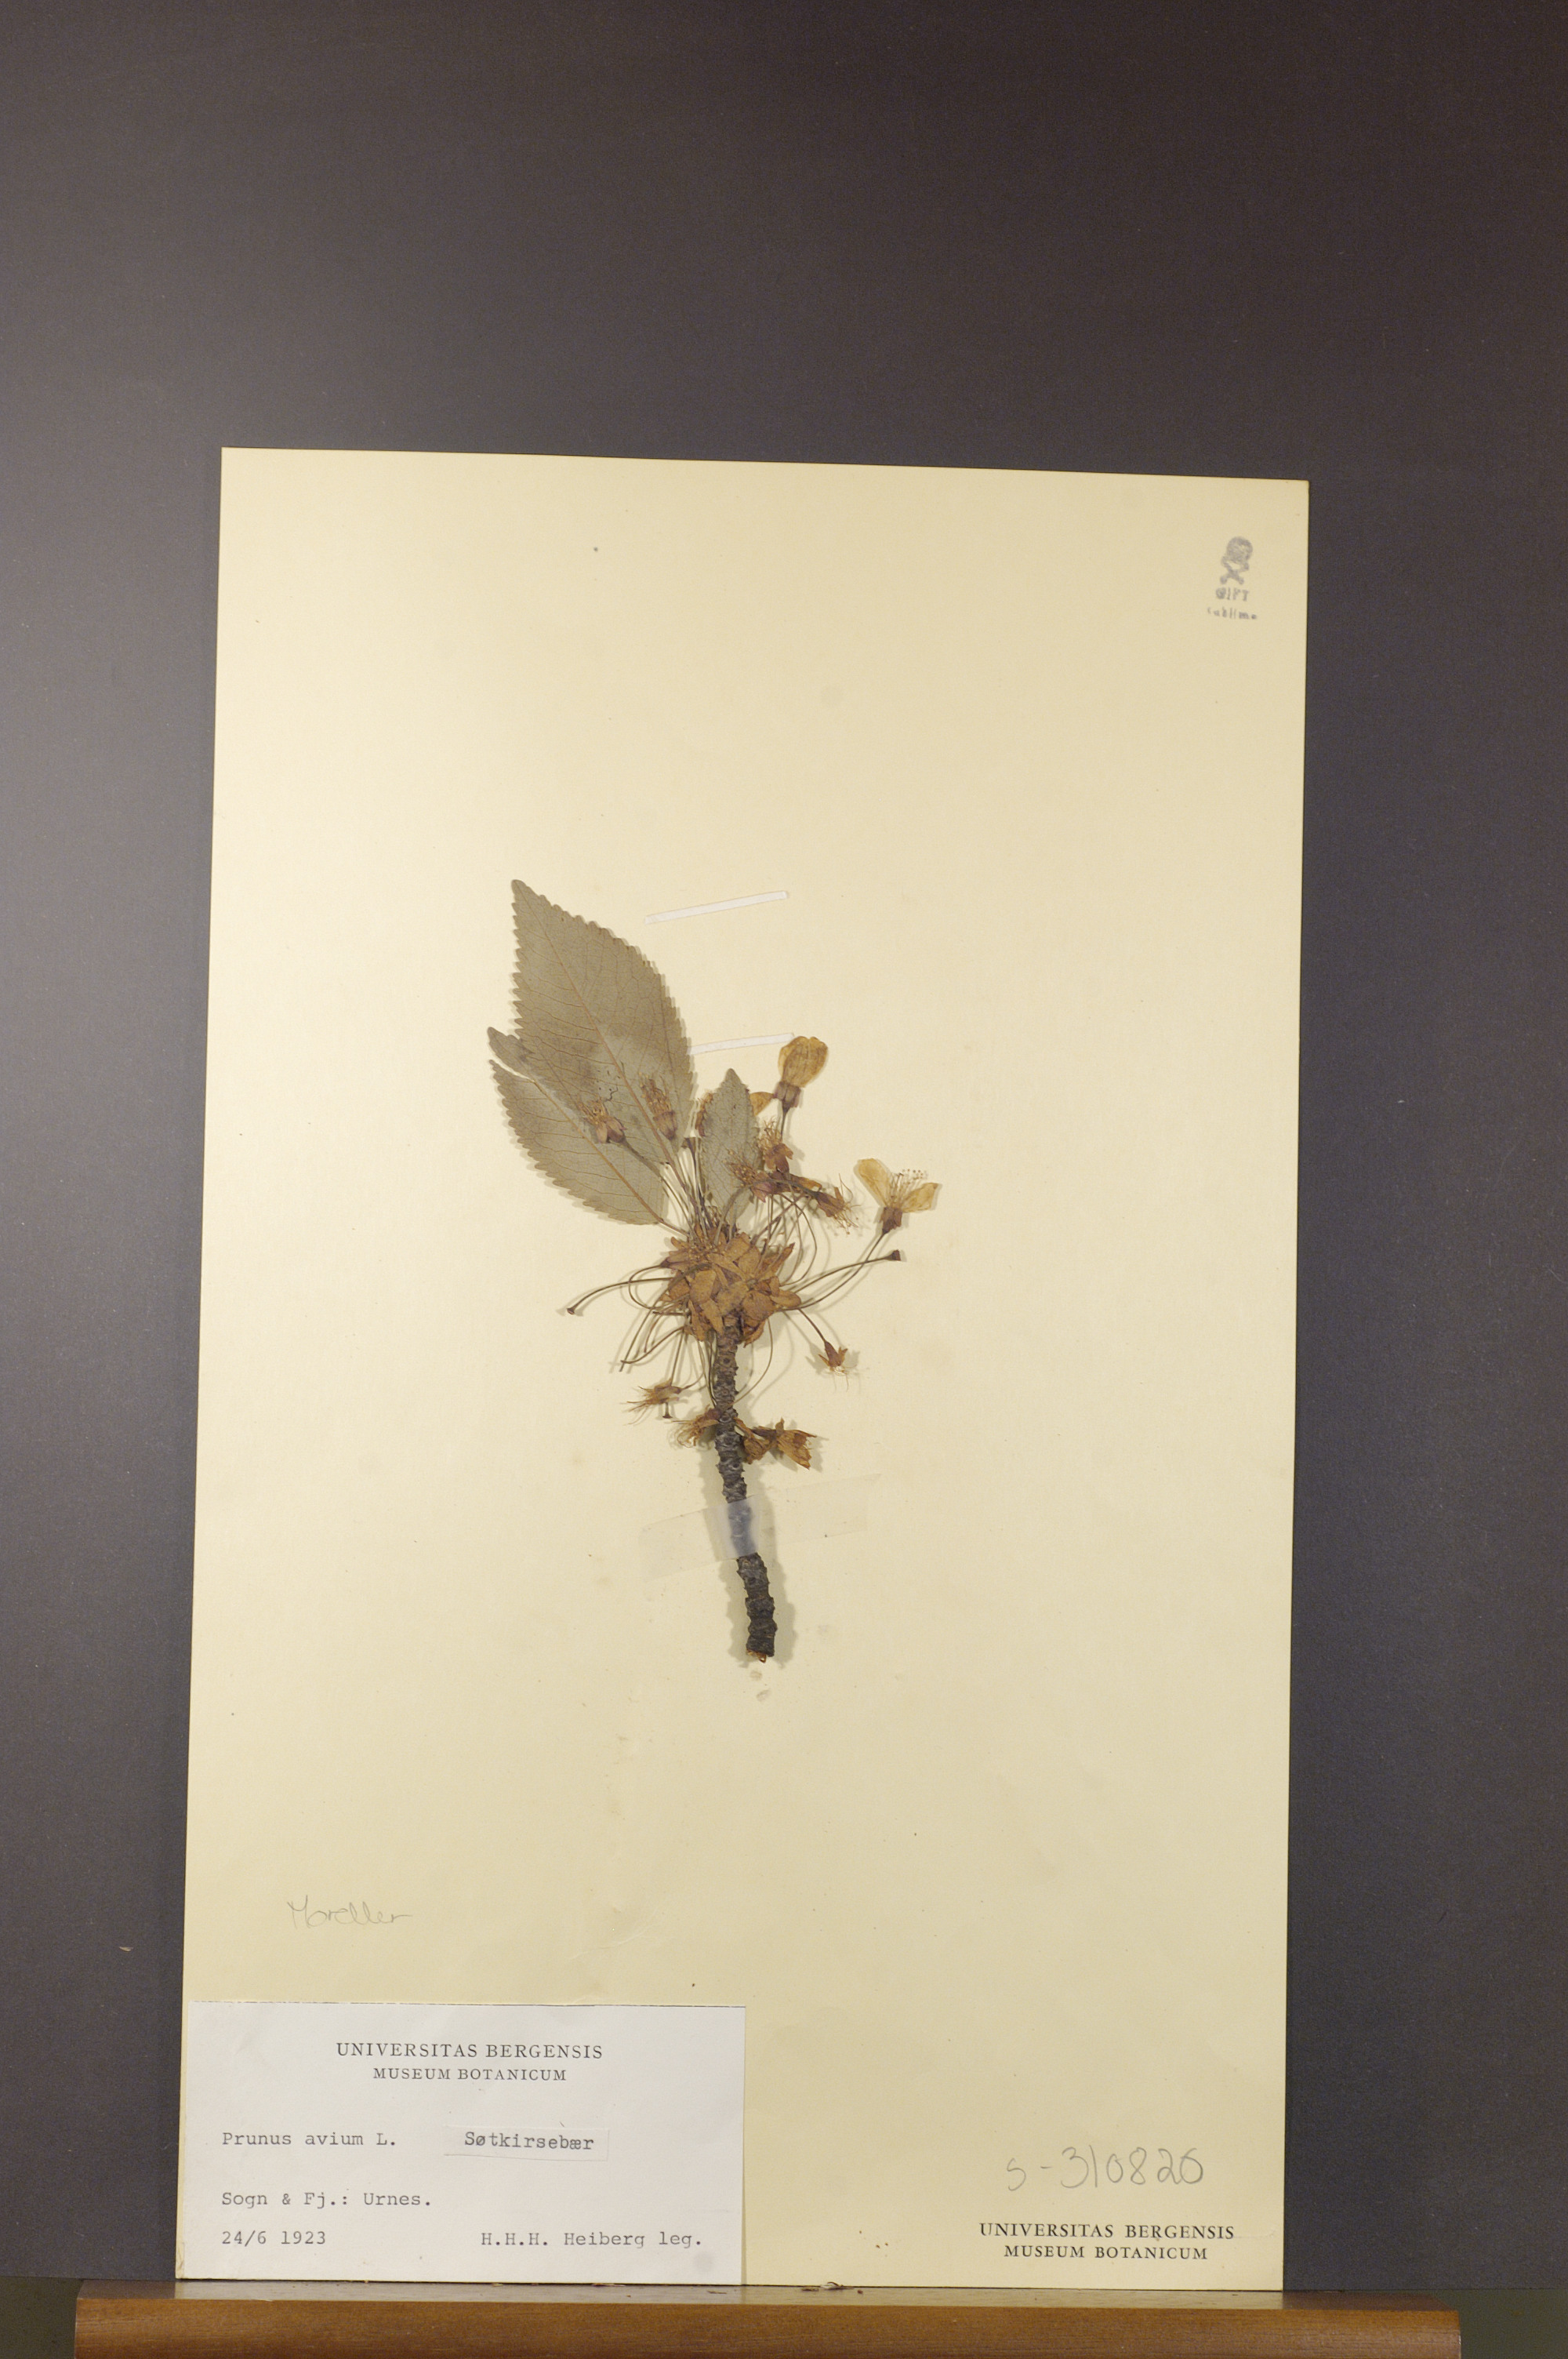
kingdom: Plantae
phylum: Tracheophyta
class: Magnoliopsida
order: Rosales
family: Rosaceae
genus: Prunus
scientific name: Prunus avium
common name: Sweet cherry
